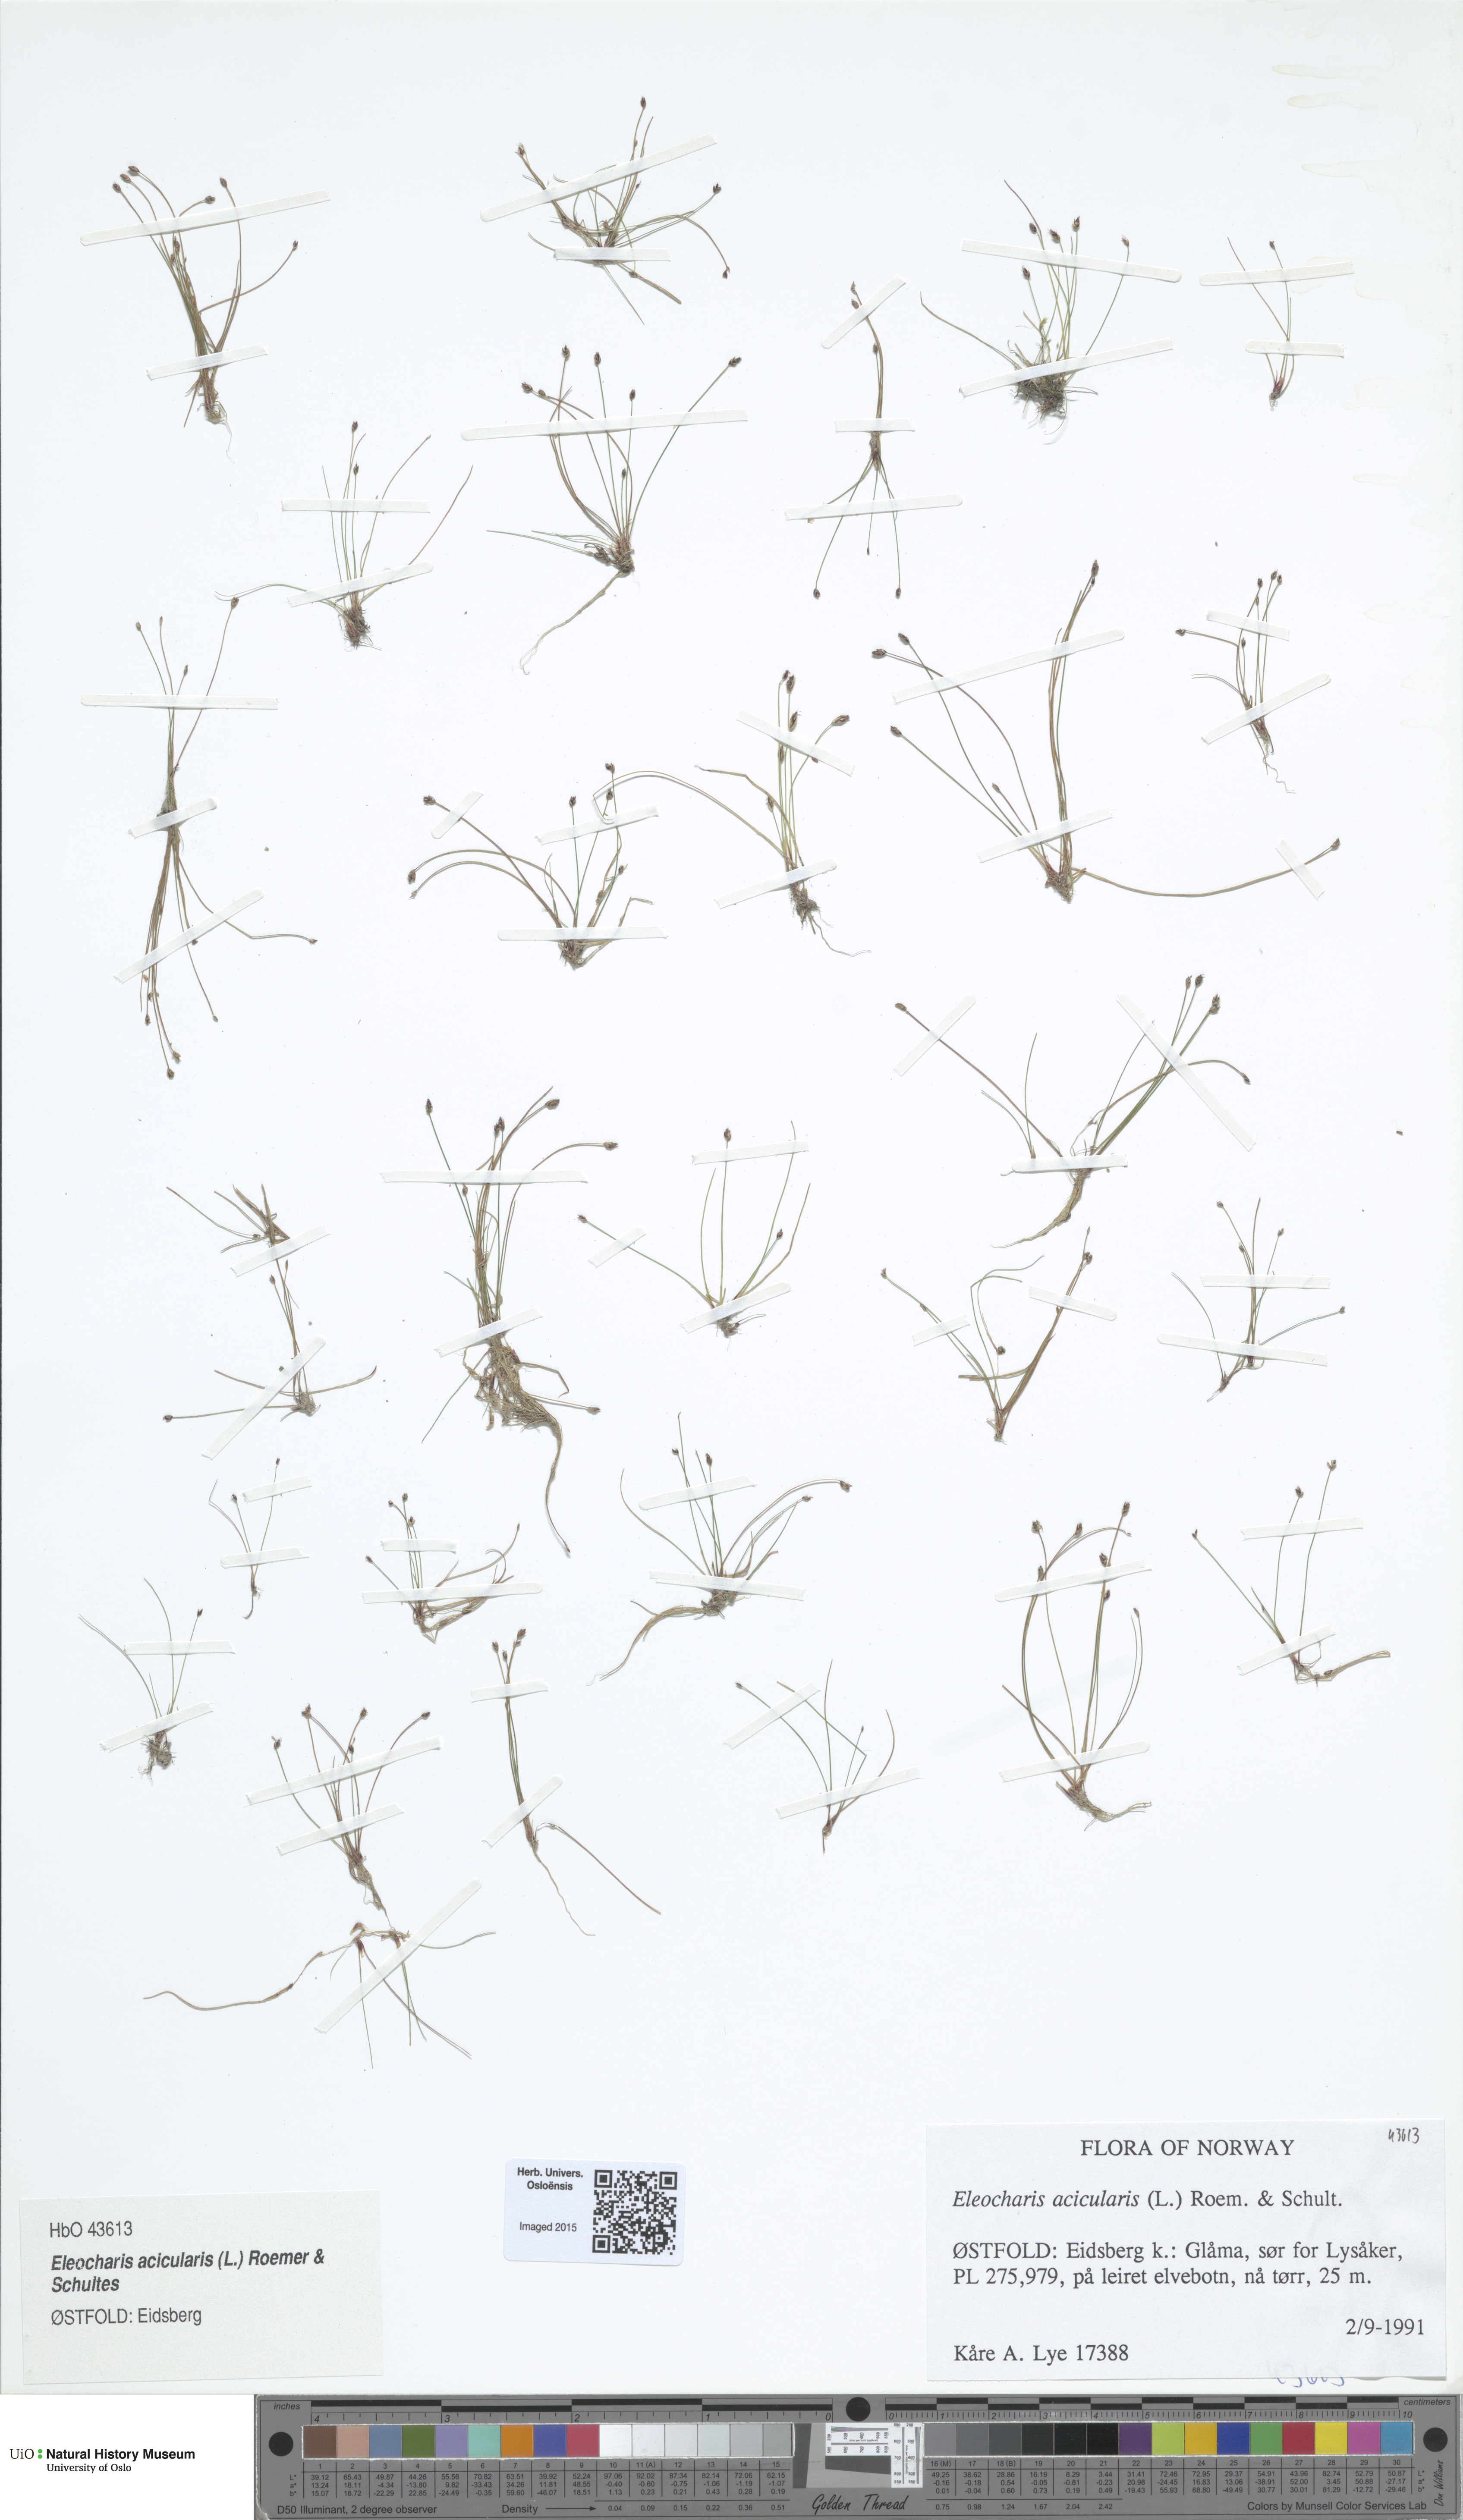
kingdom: Plantae
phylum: Tracheophyta
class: Liliopsida
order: Poales
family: Cyperaceae
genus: Eleocharis
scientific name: Eleocharis acicularis
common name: Needle spike-rush
